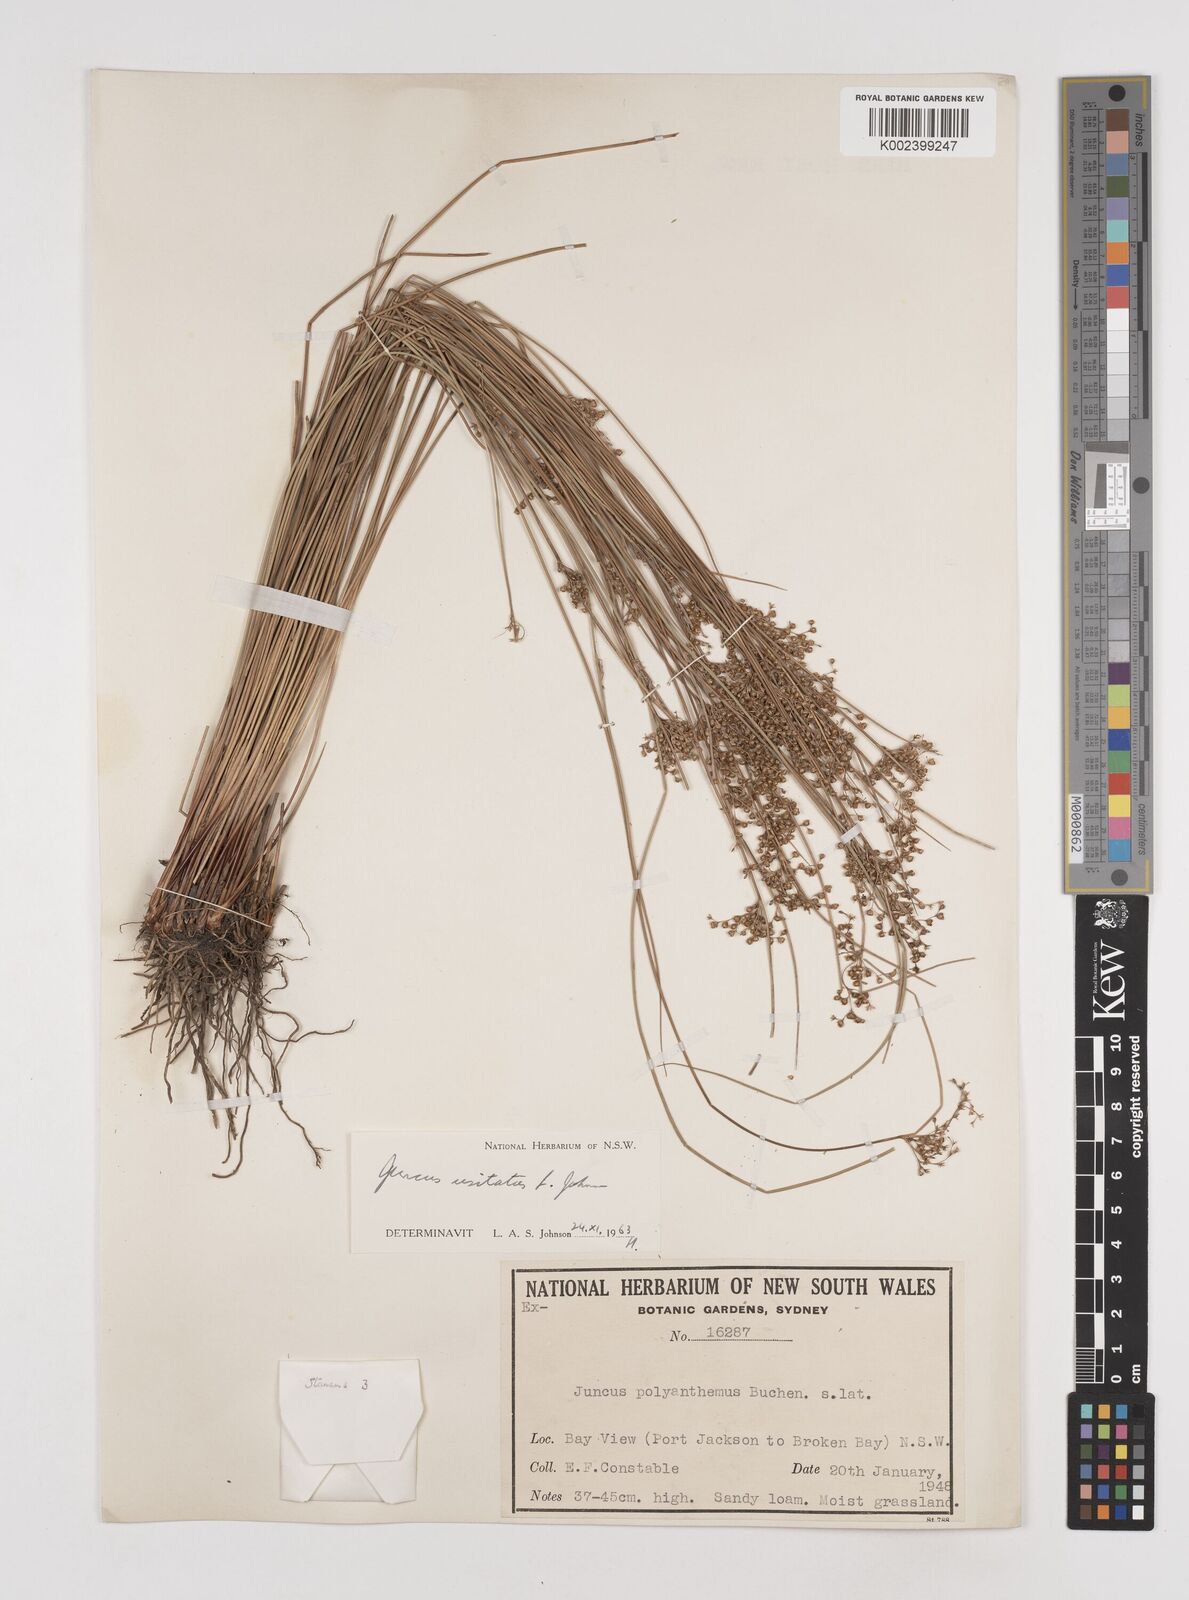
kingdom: Plantae
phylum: Tracheophyta
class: Liliopsida
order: Poales
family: Juncaceae
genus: Juncus
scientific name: Juncus usitatus
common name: Rush
